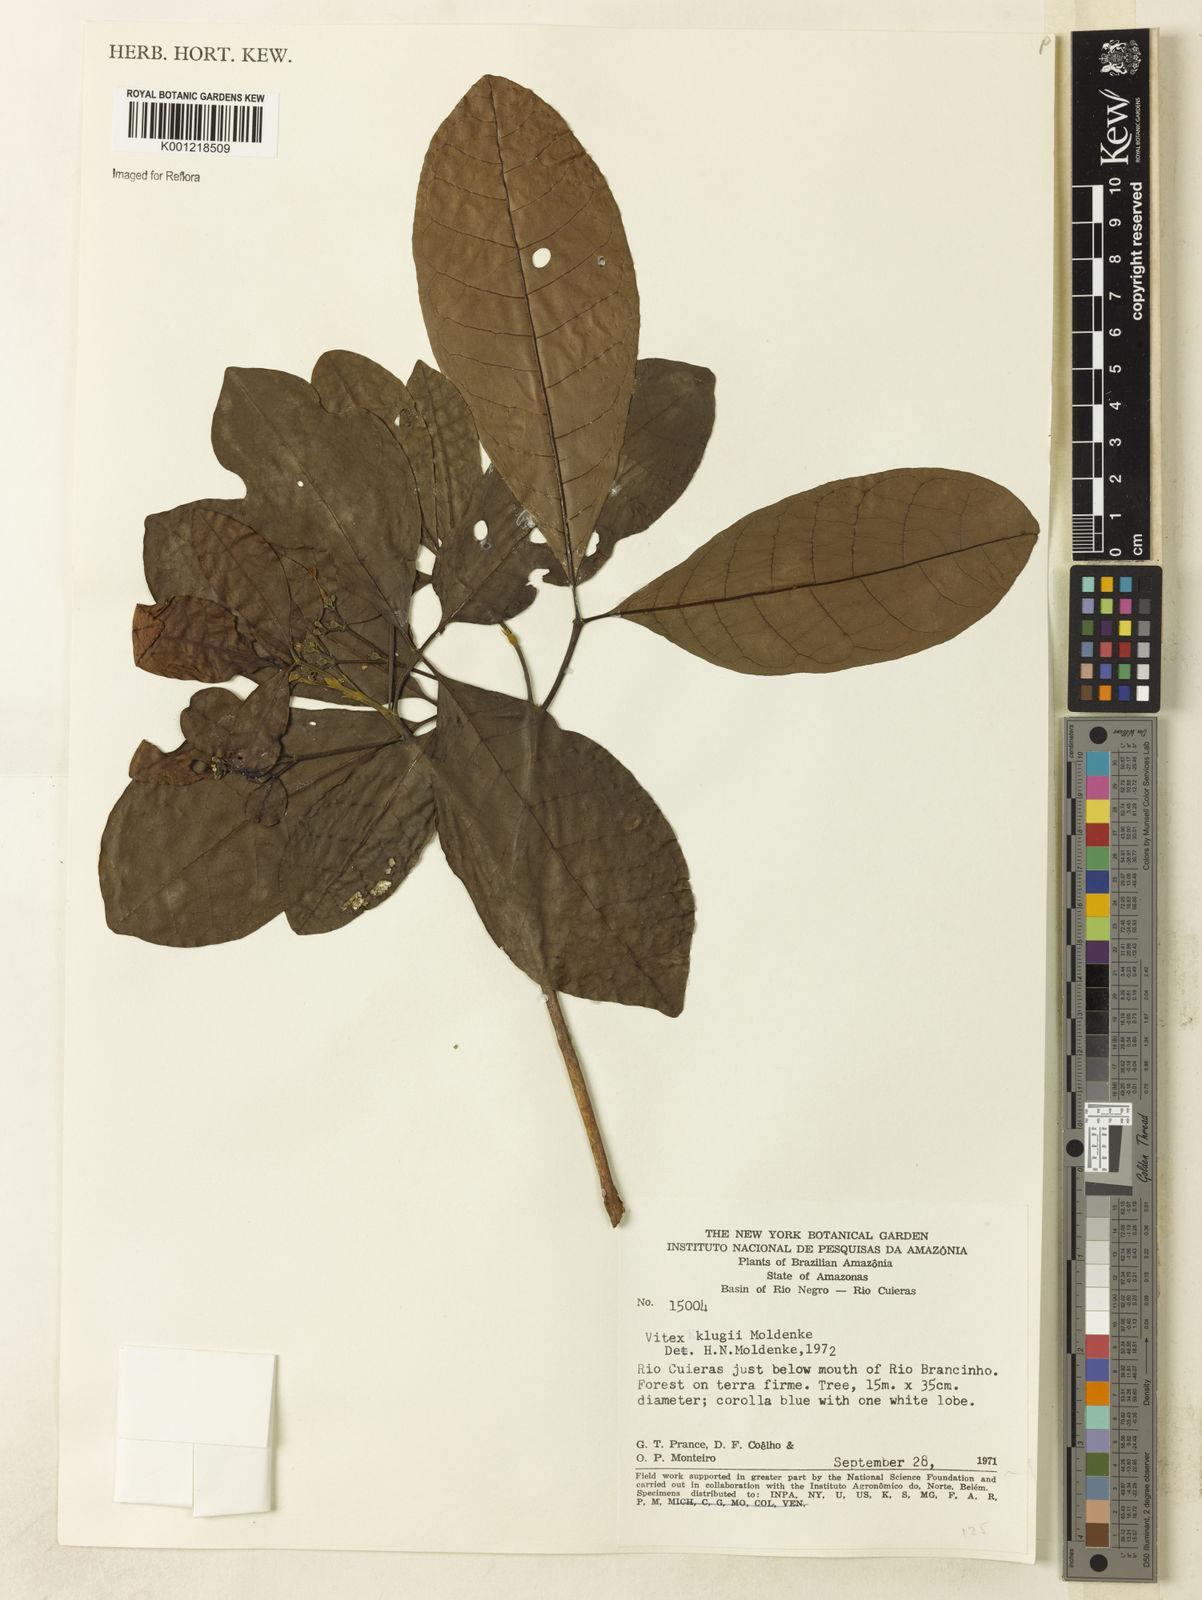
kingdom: Plantae
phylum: Tracheophyta
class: Magnoliopsida
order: Lamiales
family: Lamiaceae
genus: Vitex
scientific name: Vitex klugii
